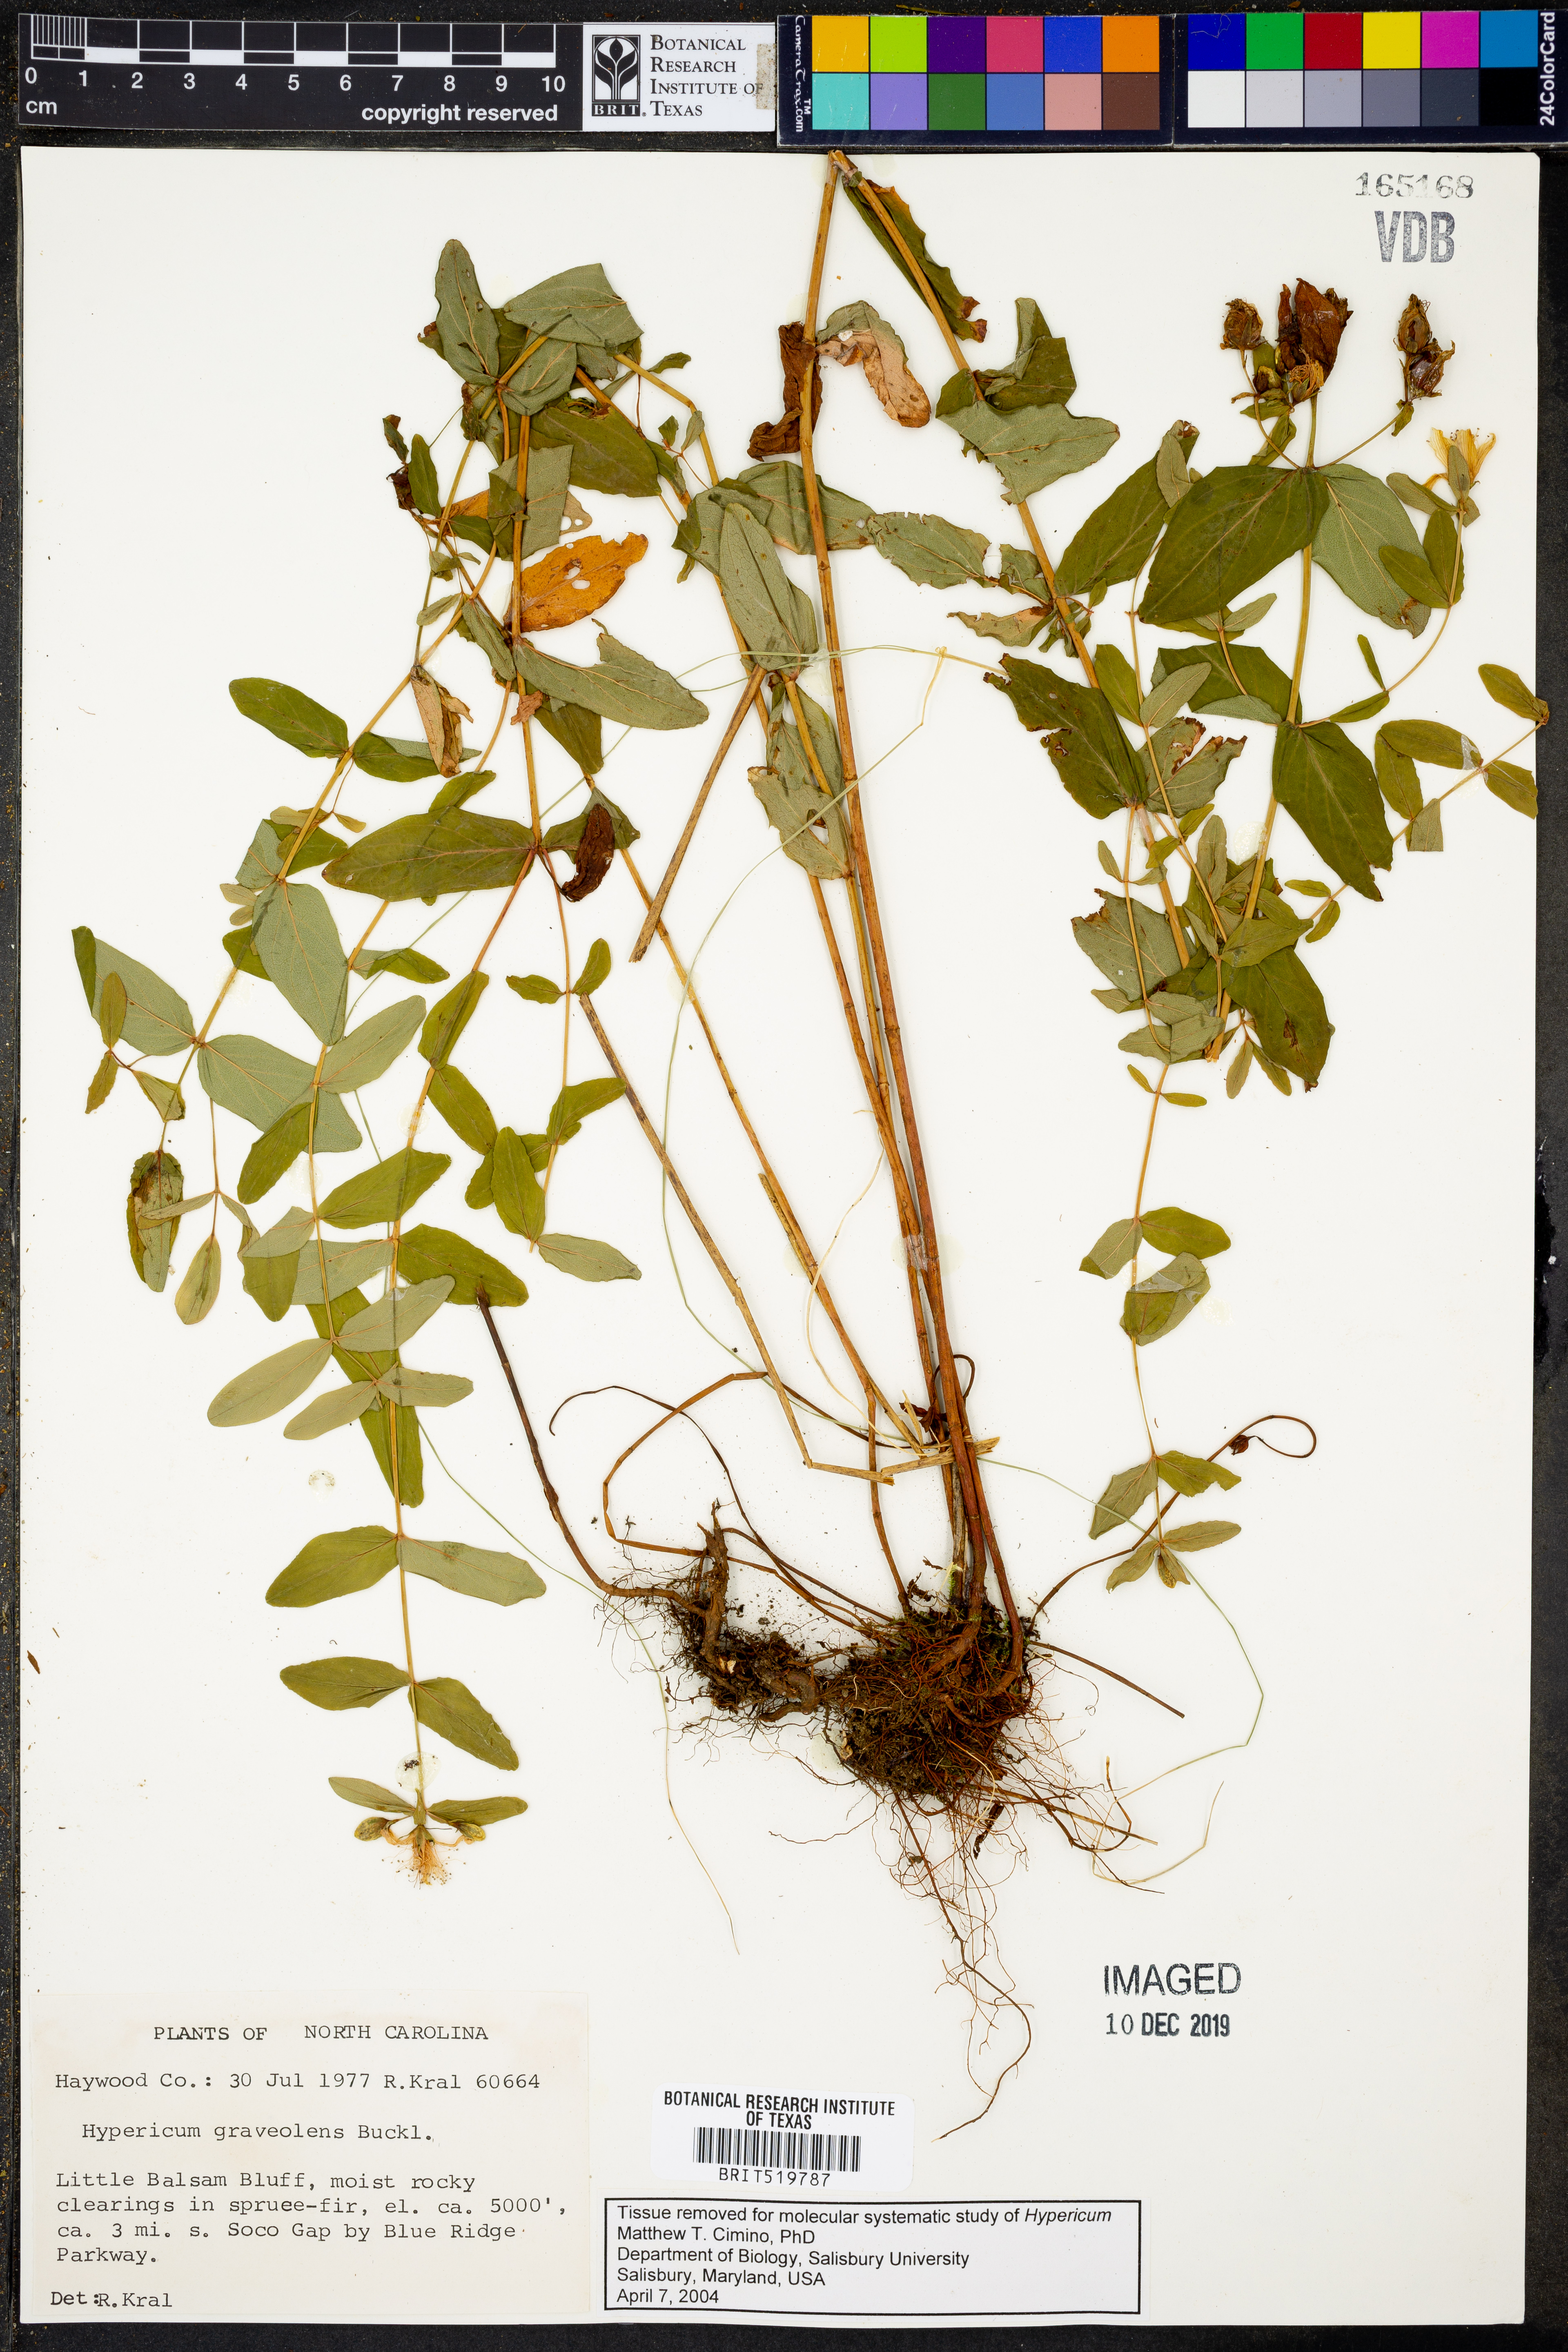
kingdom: Plantae
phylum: Tracheophyta
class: Magnoliopsida
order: Malpighiales
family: Hypericaceae
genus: Hypericum
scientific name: Hypericum graveolens
